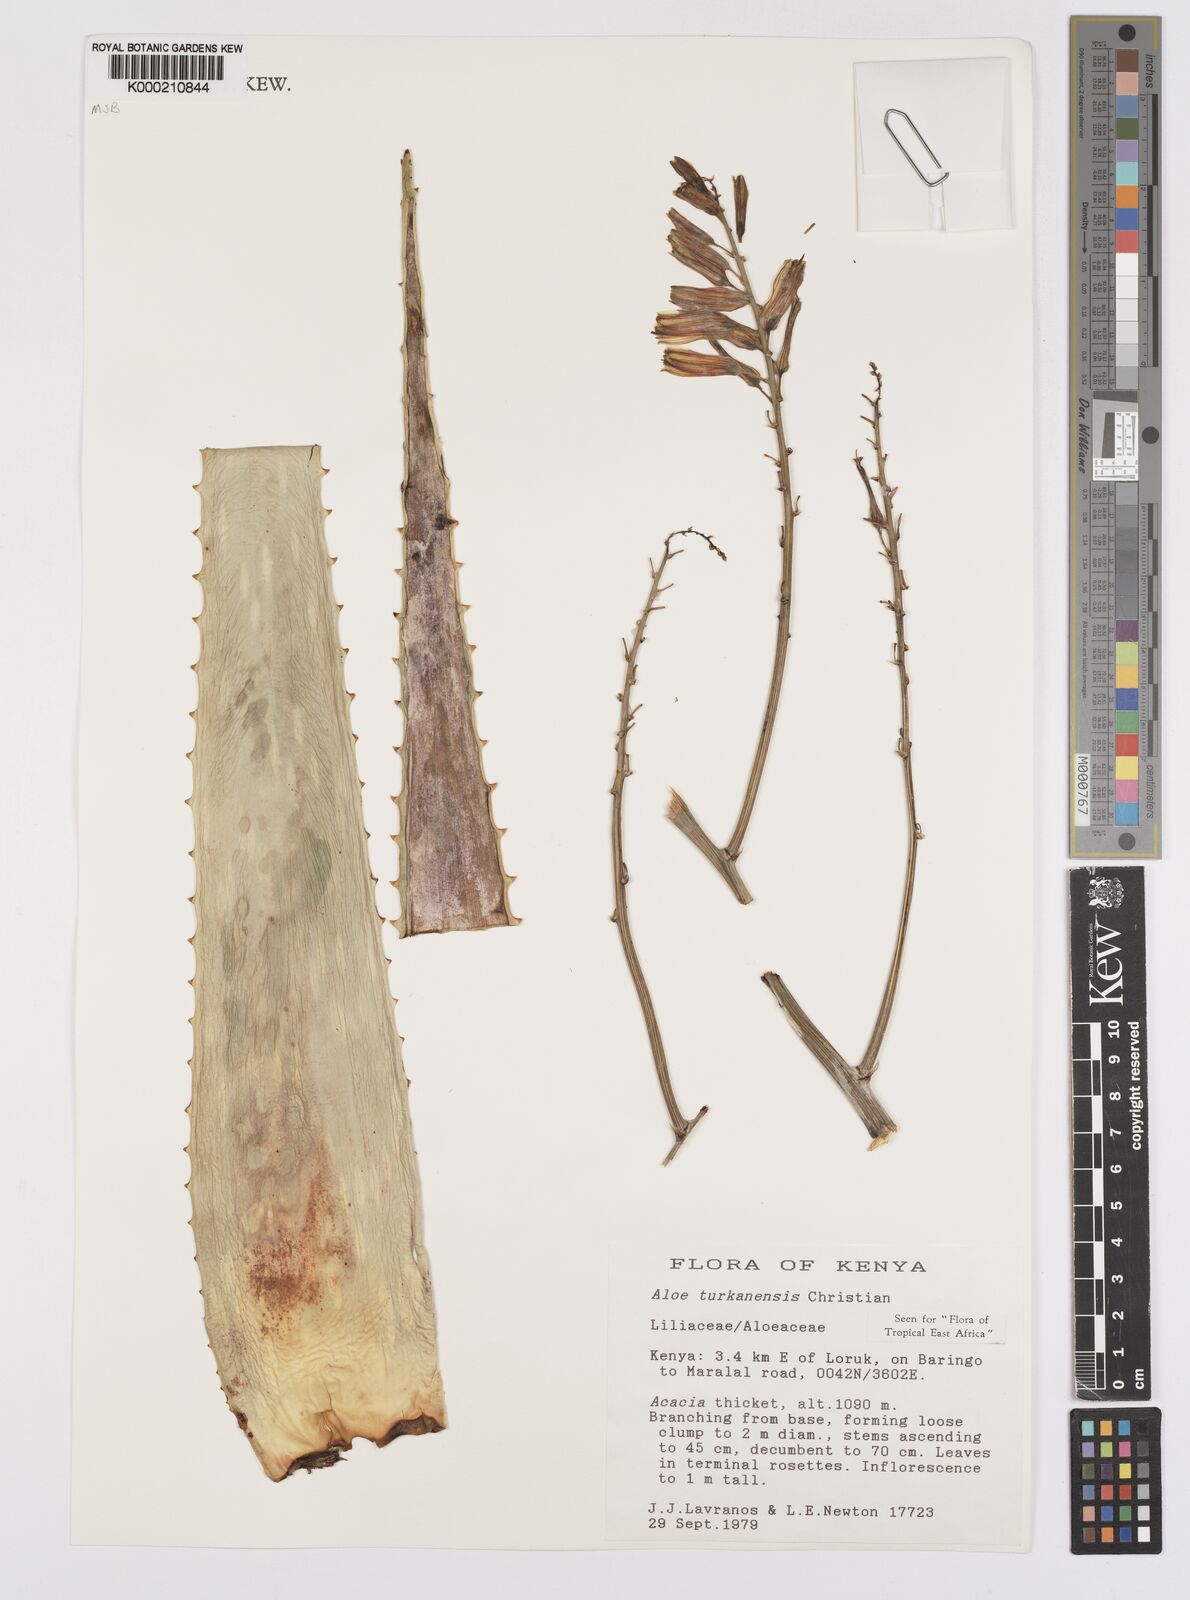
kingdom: Plantae
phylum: Tracheophyta
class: Liliopsida
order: Asparagales
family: Asphodelaceae
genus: Aloe
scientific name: Aloe turkanensis
